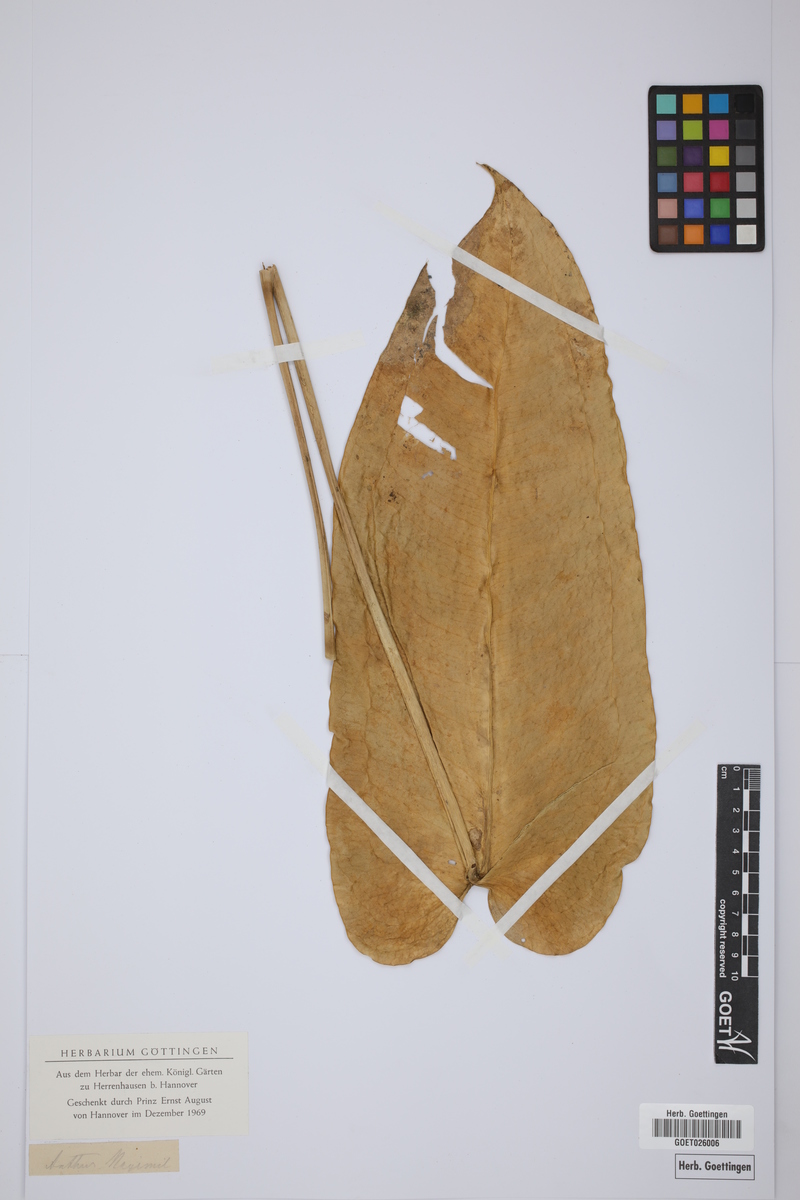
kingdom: Plantae
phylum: Tracheophyta
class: Liliopsida
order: Alismatales
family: Araceae
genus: Anthurium
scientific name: Anthurium augustinum
